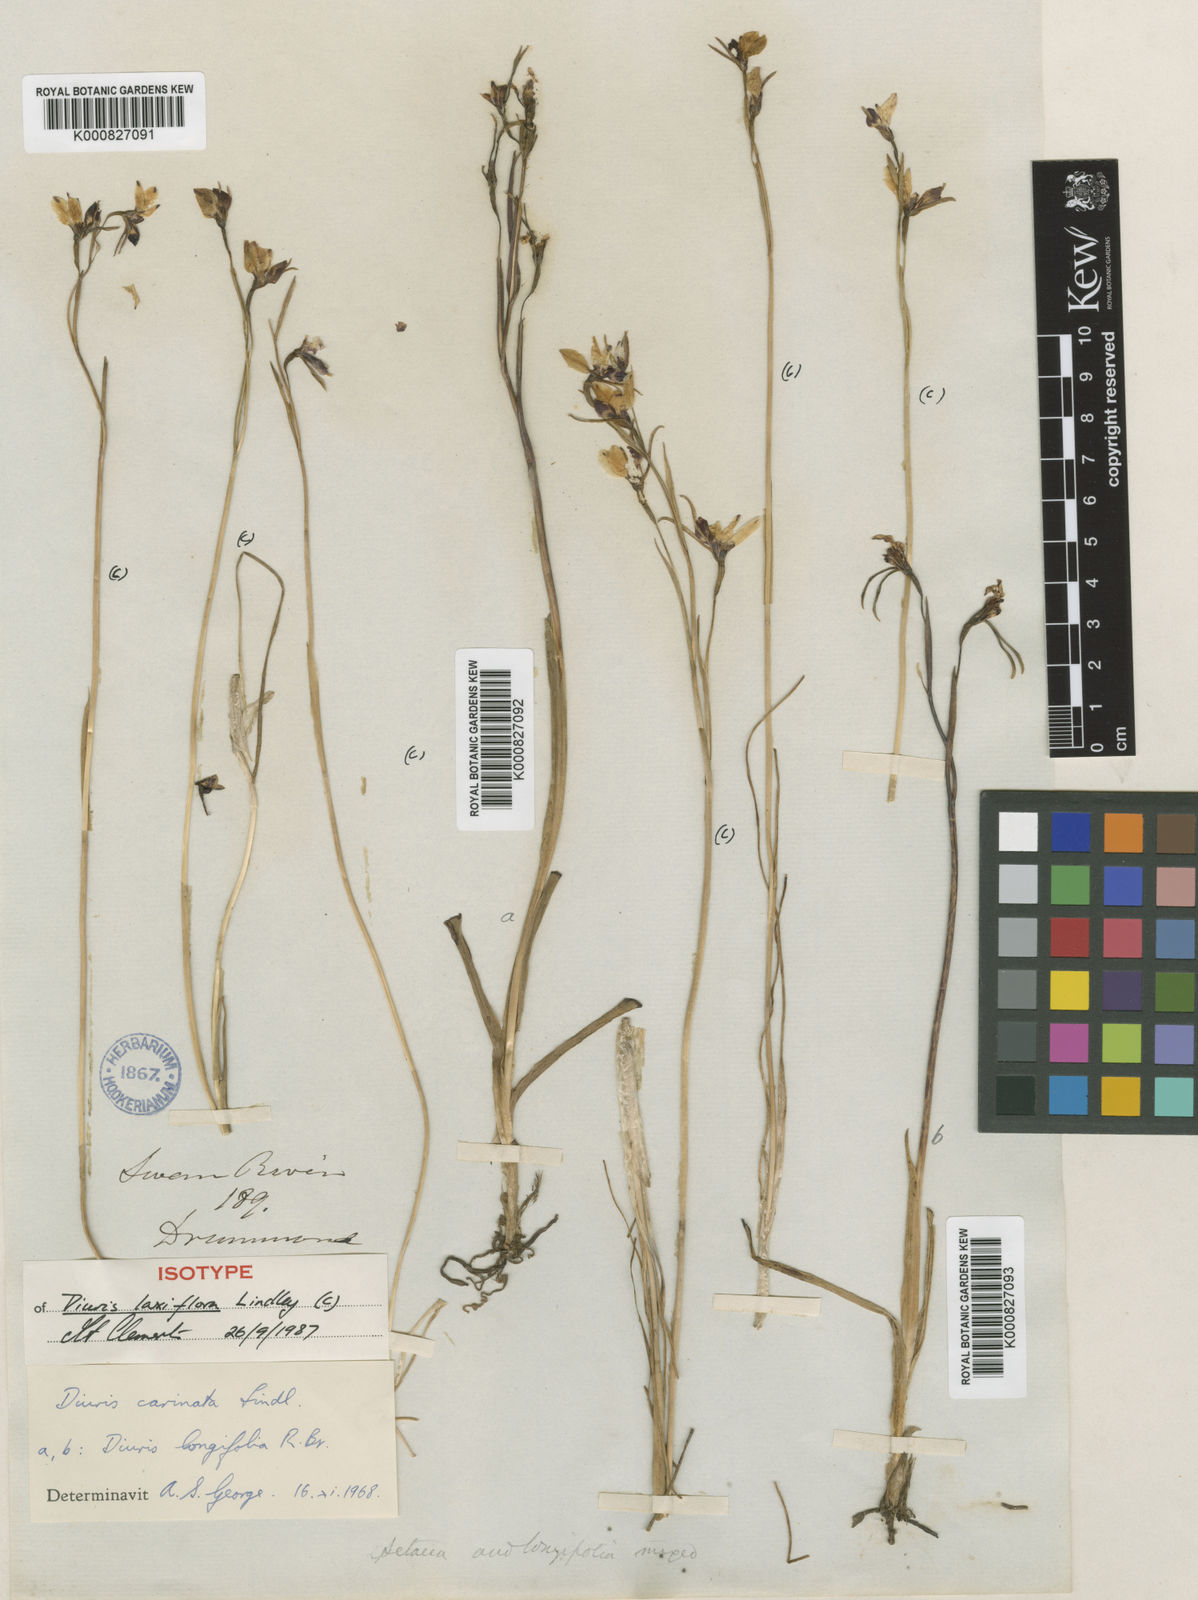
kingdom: Plantae
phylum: Tracheophyta
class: Liliopsida
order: Asparagales
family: Orchidaceae
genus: Diuris
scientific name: Diuris setacea
